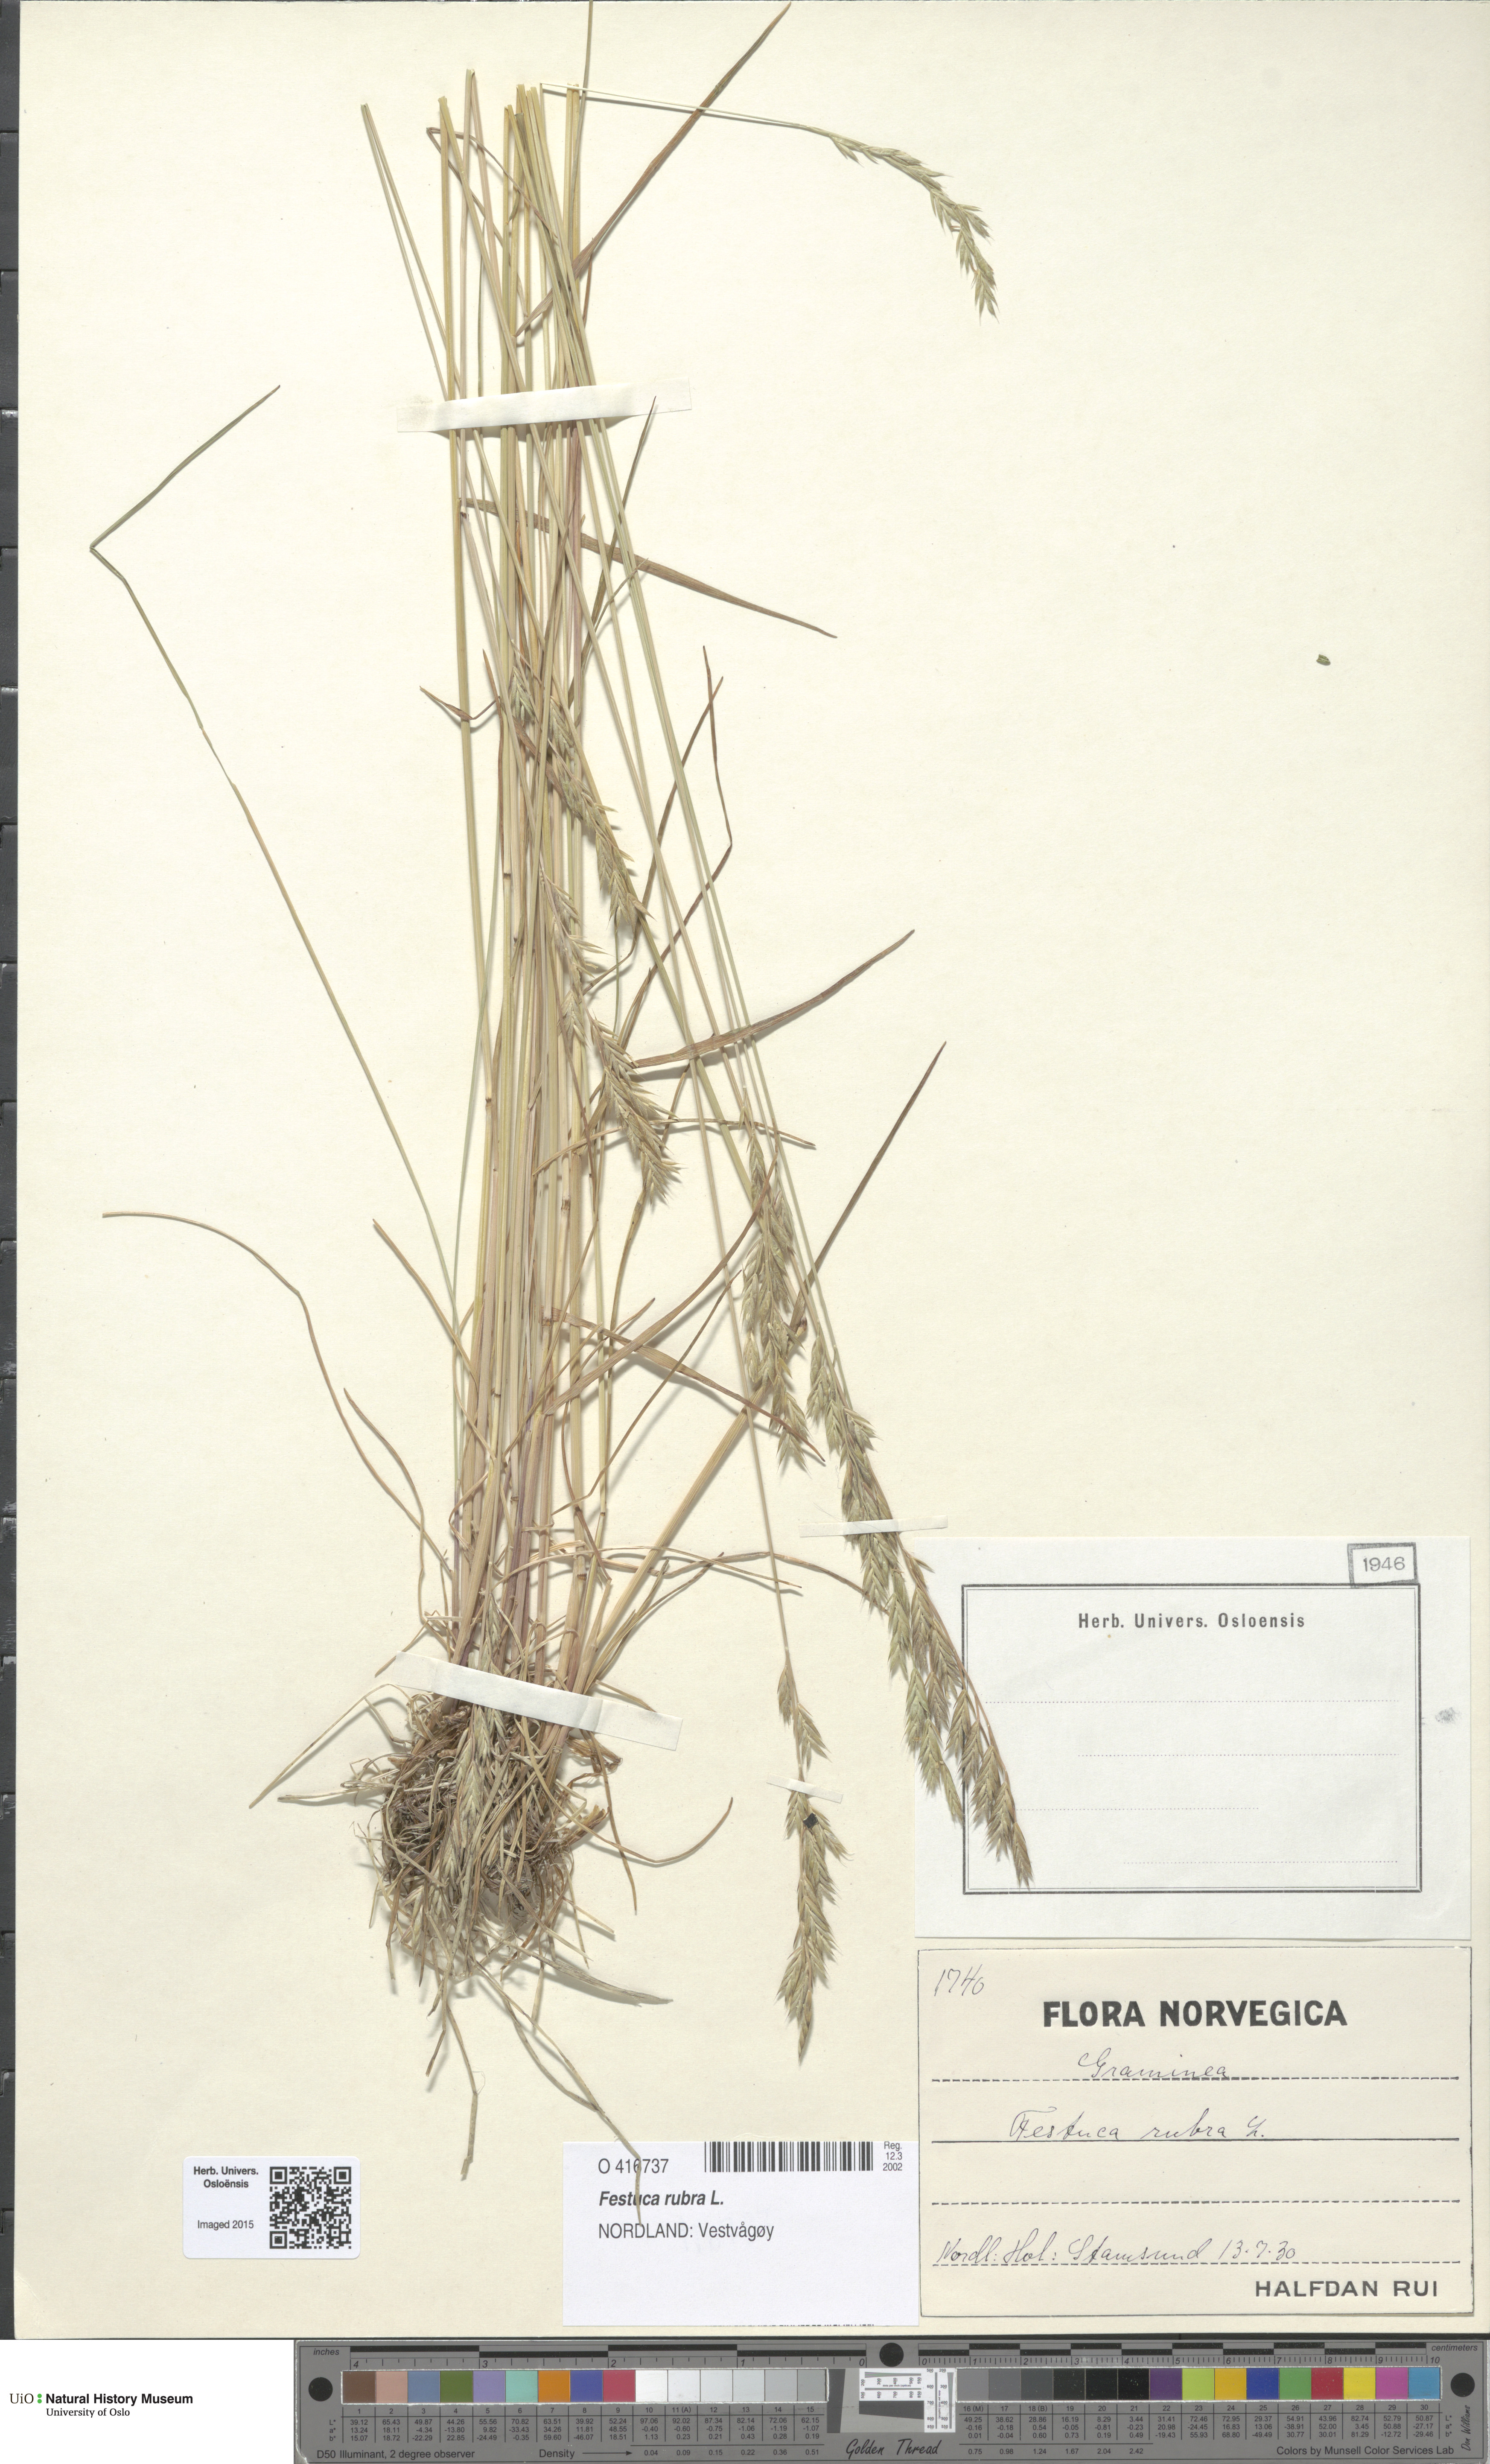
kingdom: Plantae
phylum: Tracheophyta
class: Liliopsida
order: Poales
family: Poaceae
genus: Festuca
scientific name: Festuca rubra
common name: Red fescue
